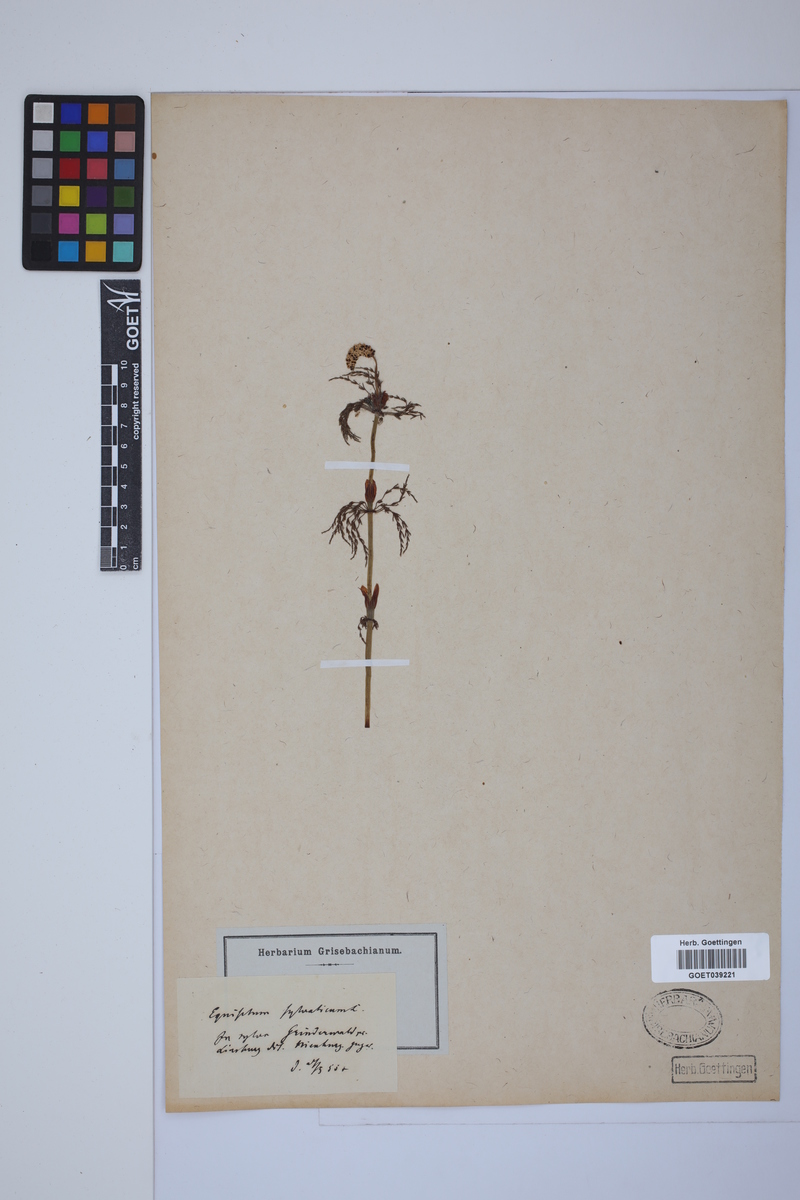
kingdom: Plantae
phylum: Tracheophyta
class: Polypodiopsida
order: Equisetales
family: Equisetaceae
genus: Equisetum
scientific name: Equisetum sylvaticum
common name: Wood horsetail
